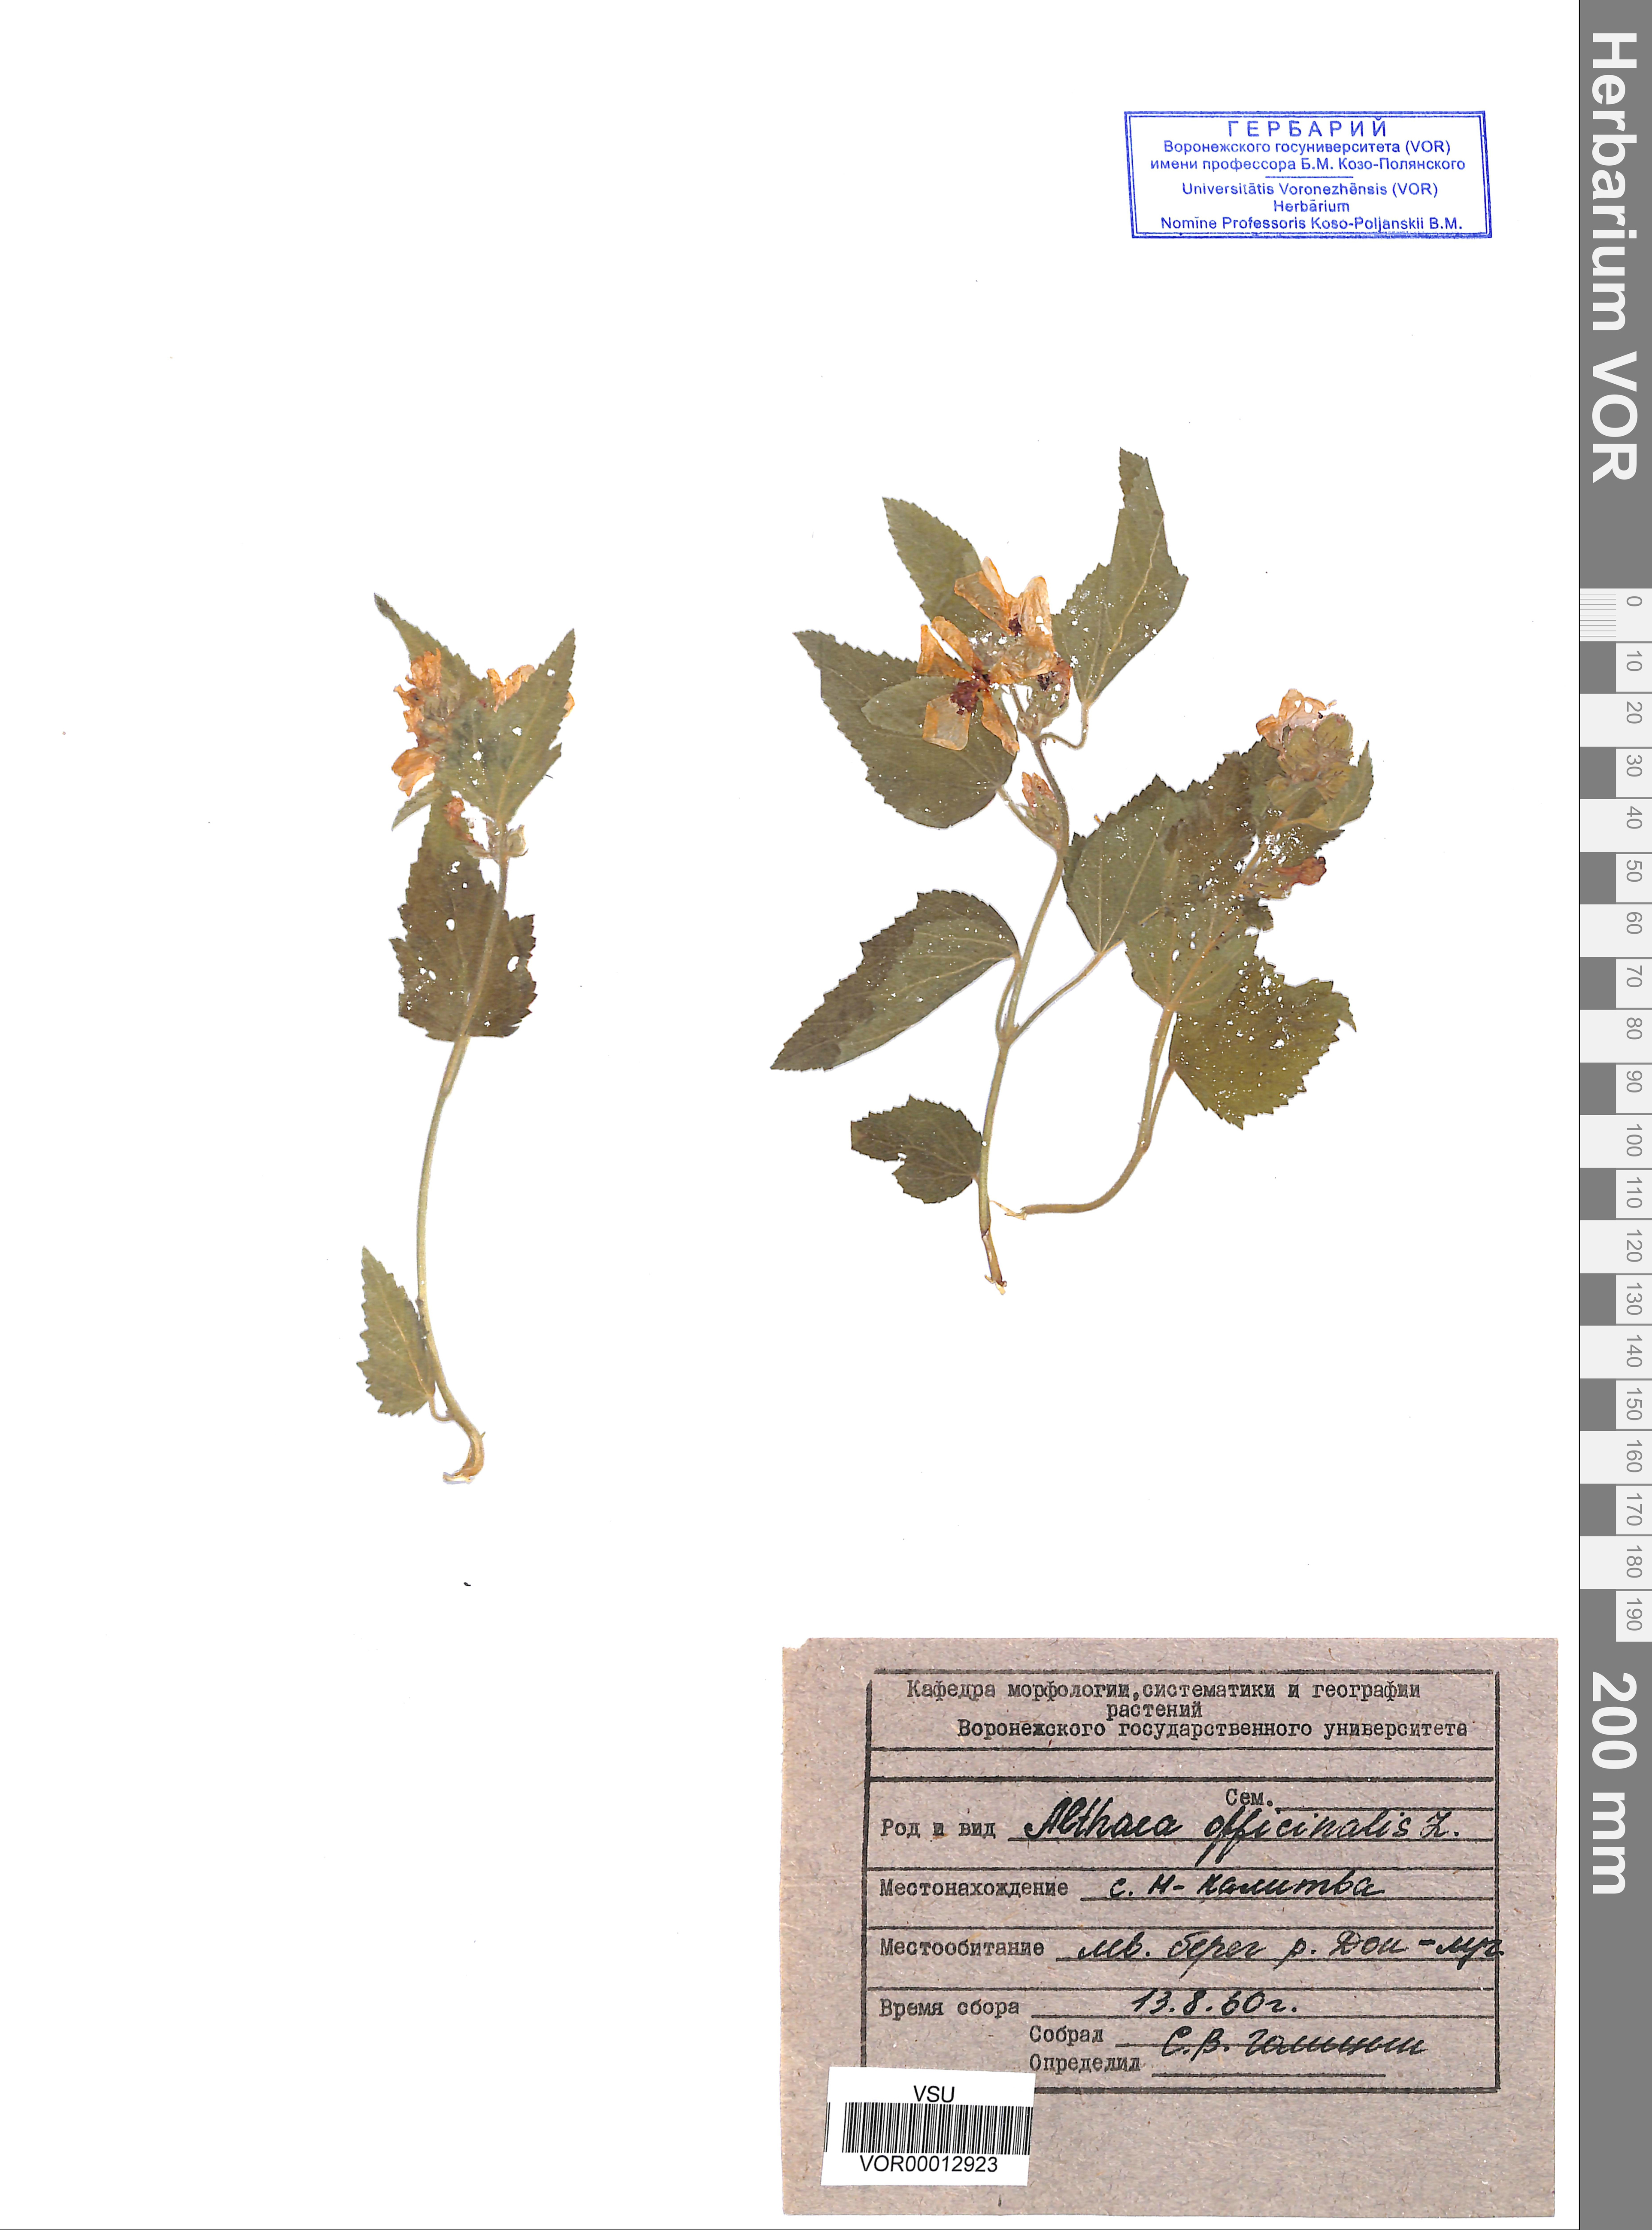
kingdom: Plantae
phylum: Tracheophyta
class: Magnoliopsida
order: Malvales
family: Malvaceae
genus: Althaea
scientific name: Althaea officinalis
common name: Marsh-mallow
